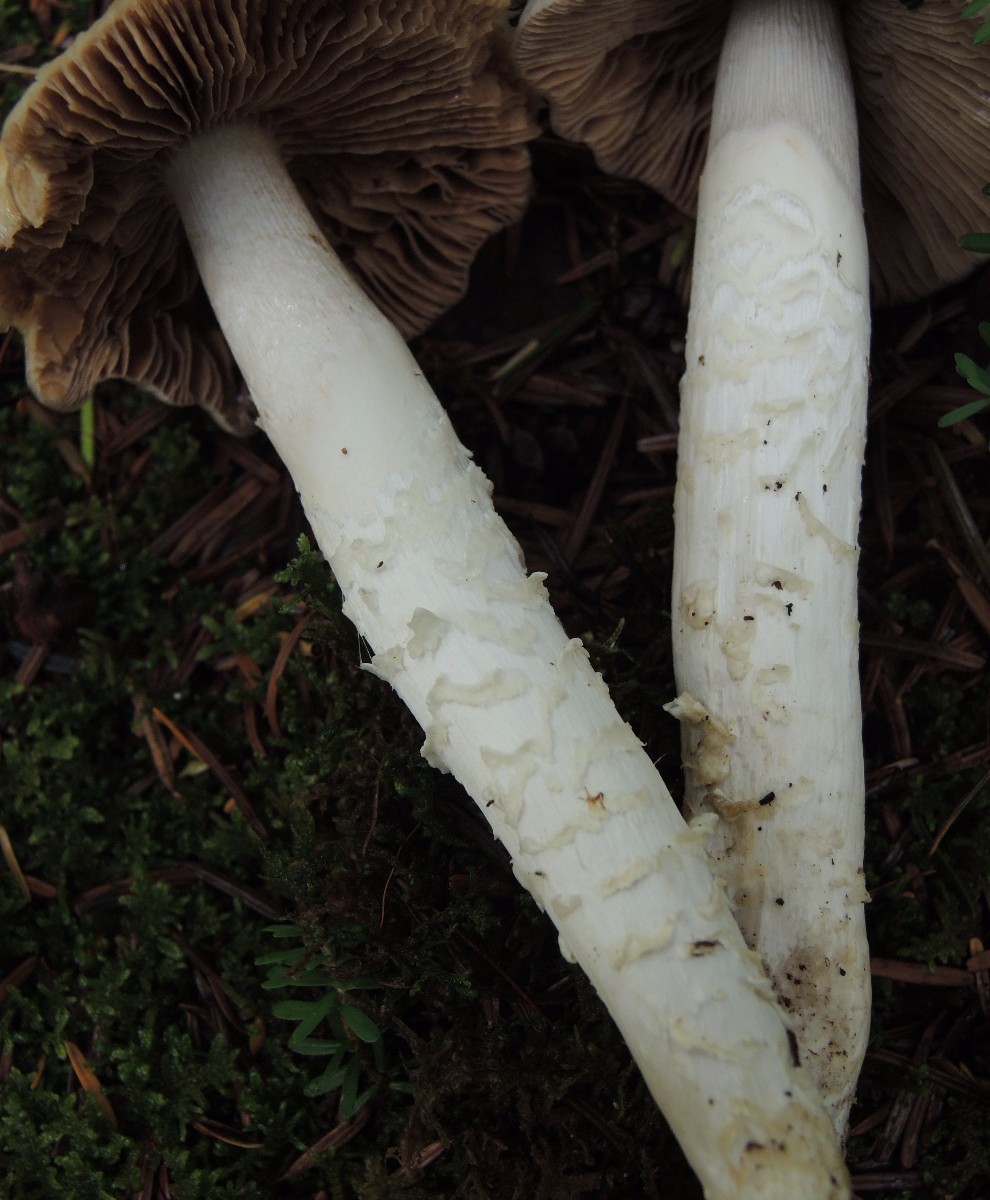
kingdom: Fungi
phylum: Basidiomycota
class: Agaricomycetes
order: Agaricales
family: Cortinariaceae
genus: Cortinarius
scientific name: Cortinarius mucifluus
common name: rynket slørhat
